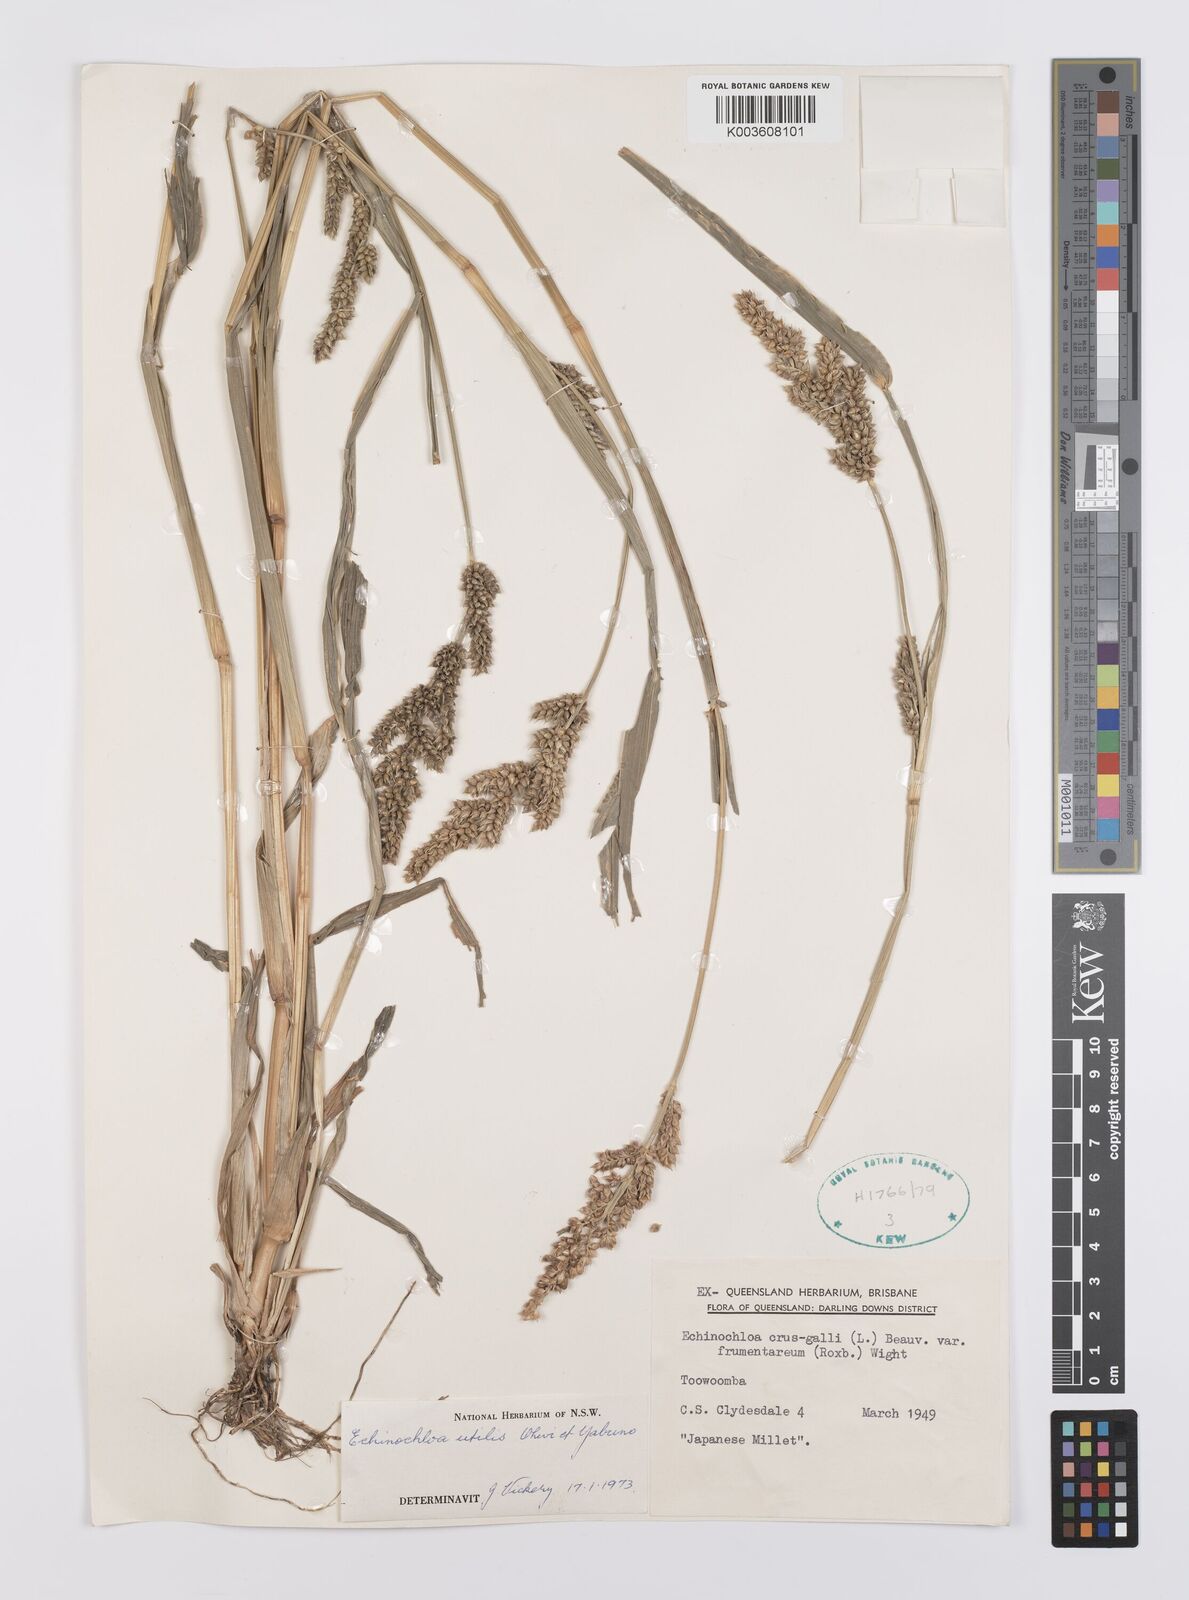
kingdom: Plantae
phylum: Tracheophyta
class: Liliopsida
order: Poales
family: Poaceae
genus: Echinochloa
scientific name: Echinochloa crus-galli
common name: Cockspur
